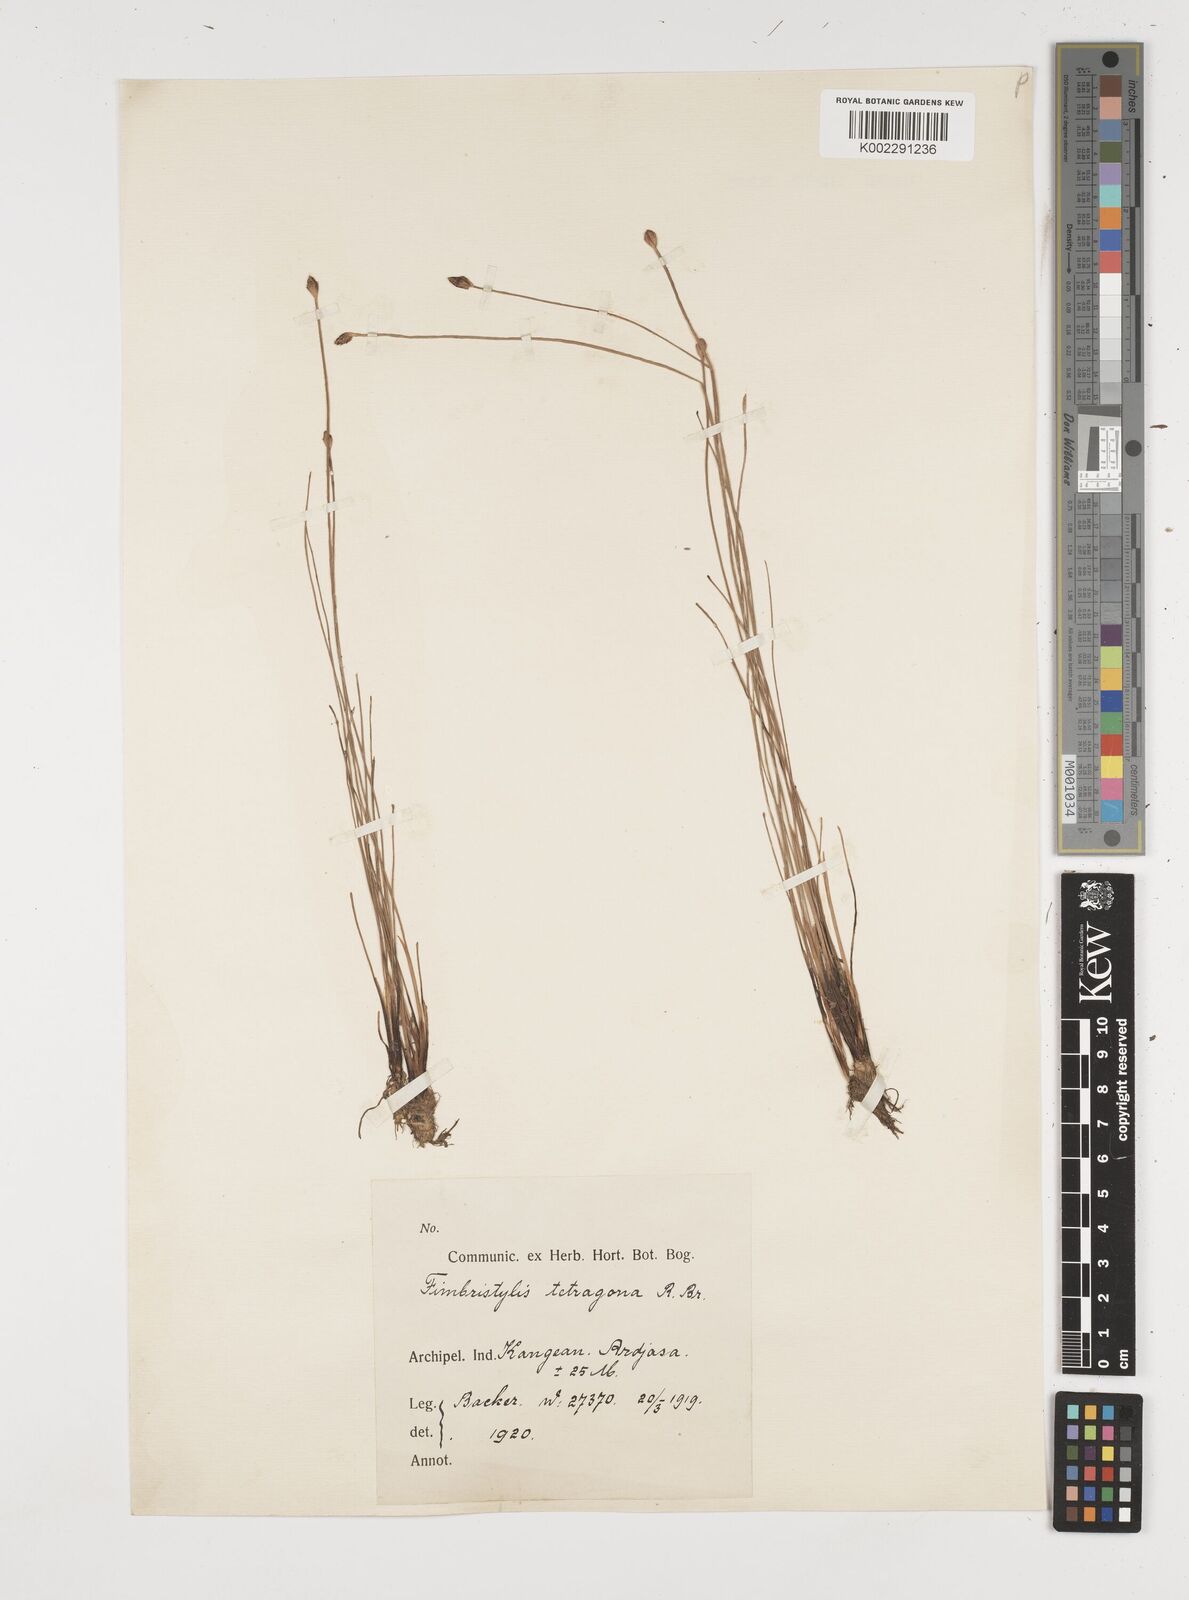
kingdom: Plantae
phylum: Tracheophyta
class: Liliopsida
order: Poales
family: Cyperaceae
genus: Fimbristylis
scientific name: Fimbristylis tetragona
